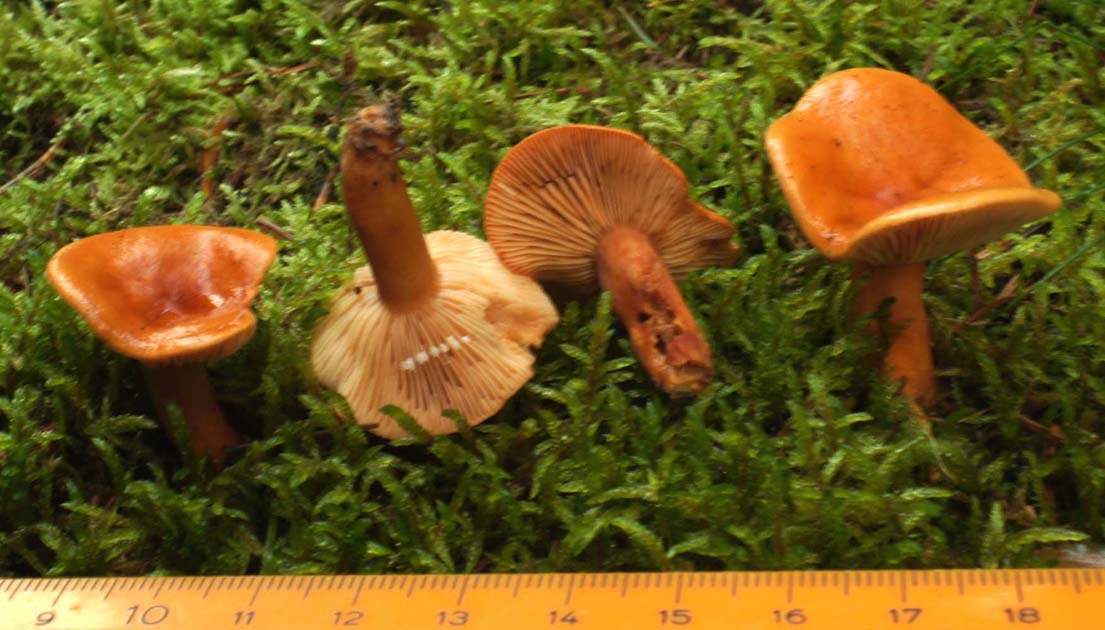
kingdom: Fungi
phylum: Basidiomycota
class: Agaricomycetes
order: Russulales
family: Russulaceae
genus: Lactarius
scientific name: Lactarius aurantiacus
